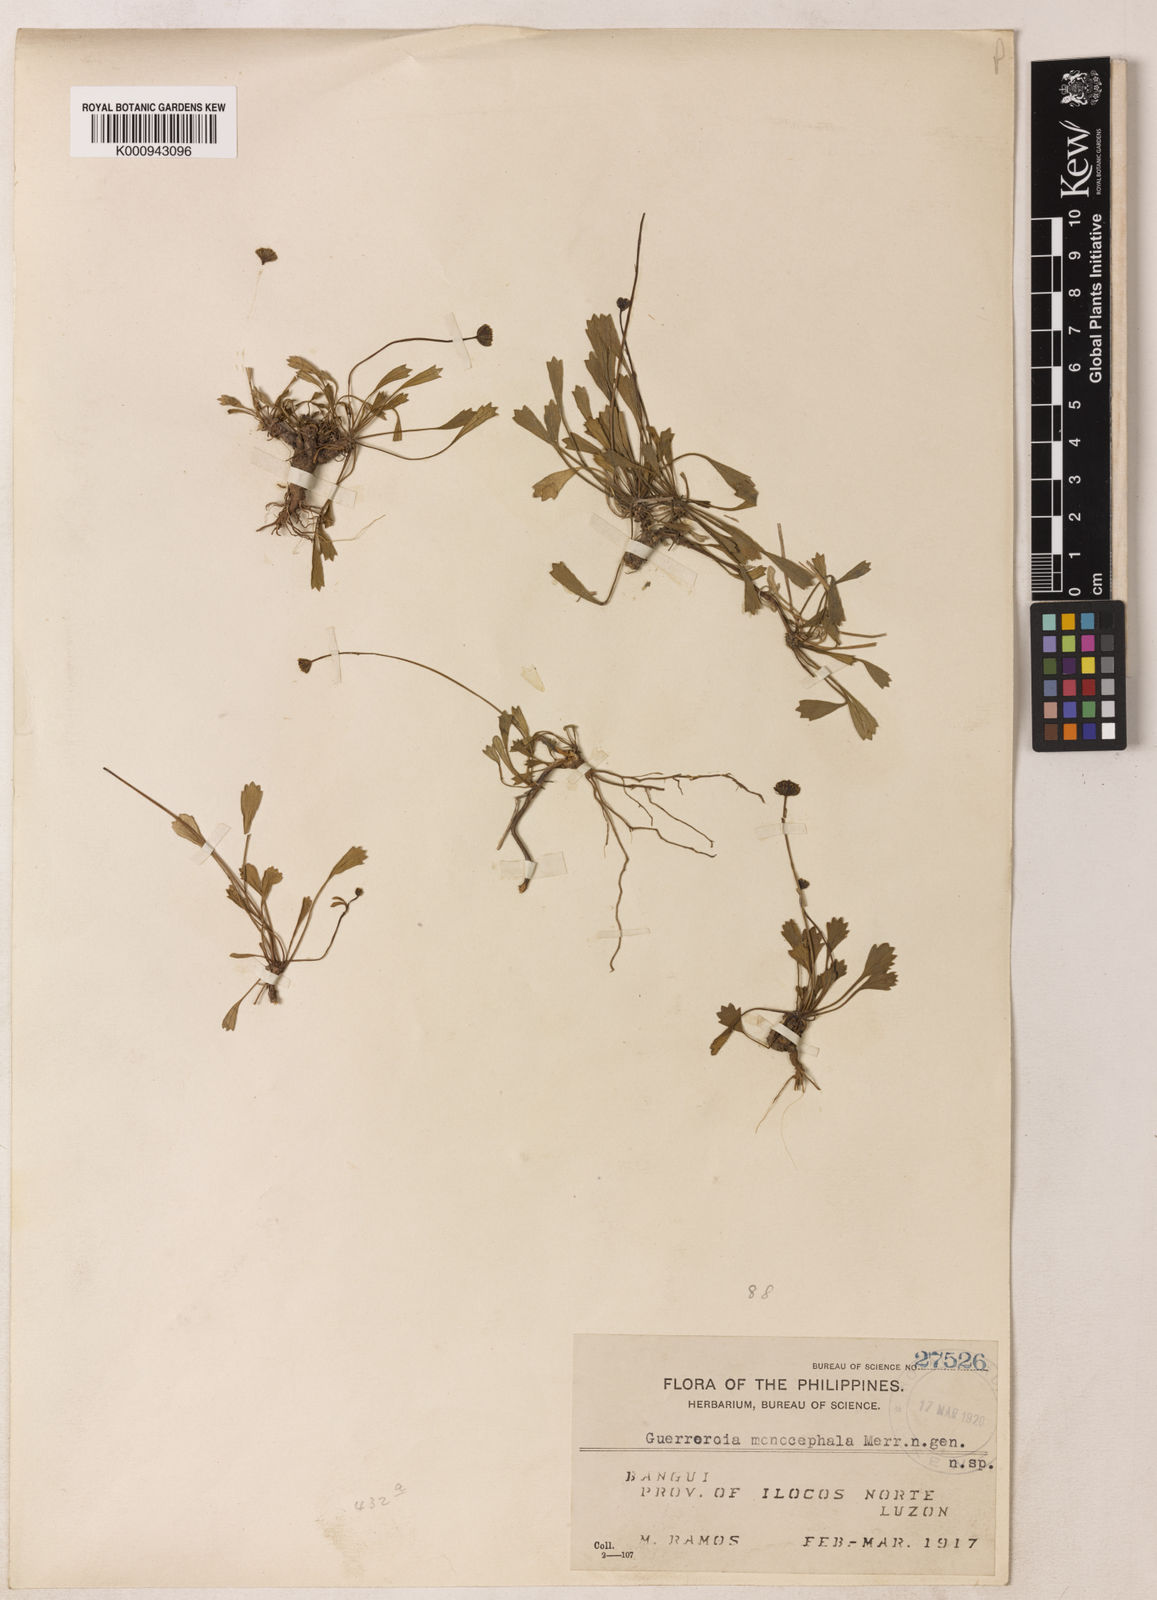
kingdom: Plantae
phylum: Tracheophyta
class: Magnoliopsida
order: Asterales
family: Asteraceae
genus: Glossocardia
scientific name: Glossocardia tridentata
